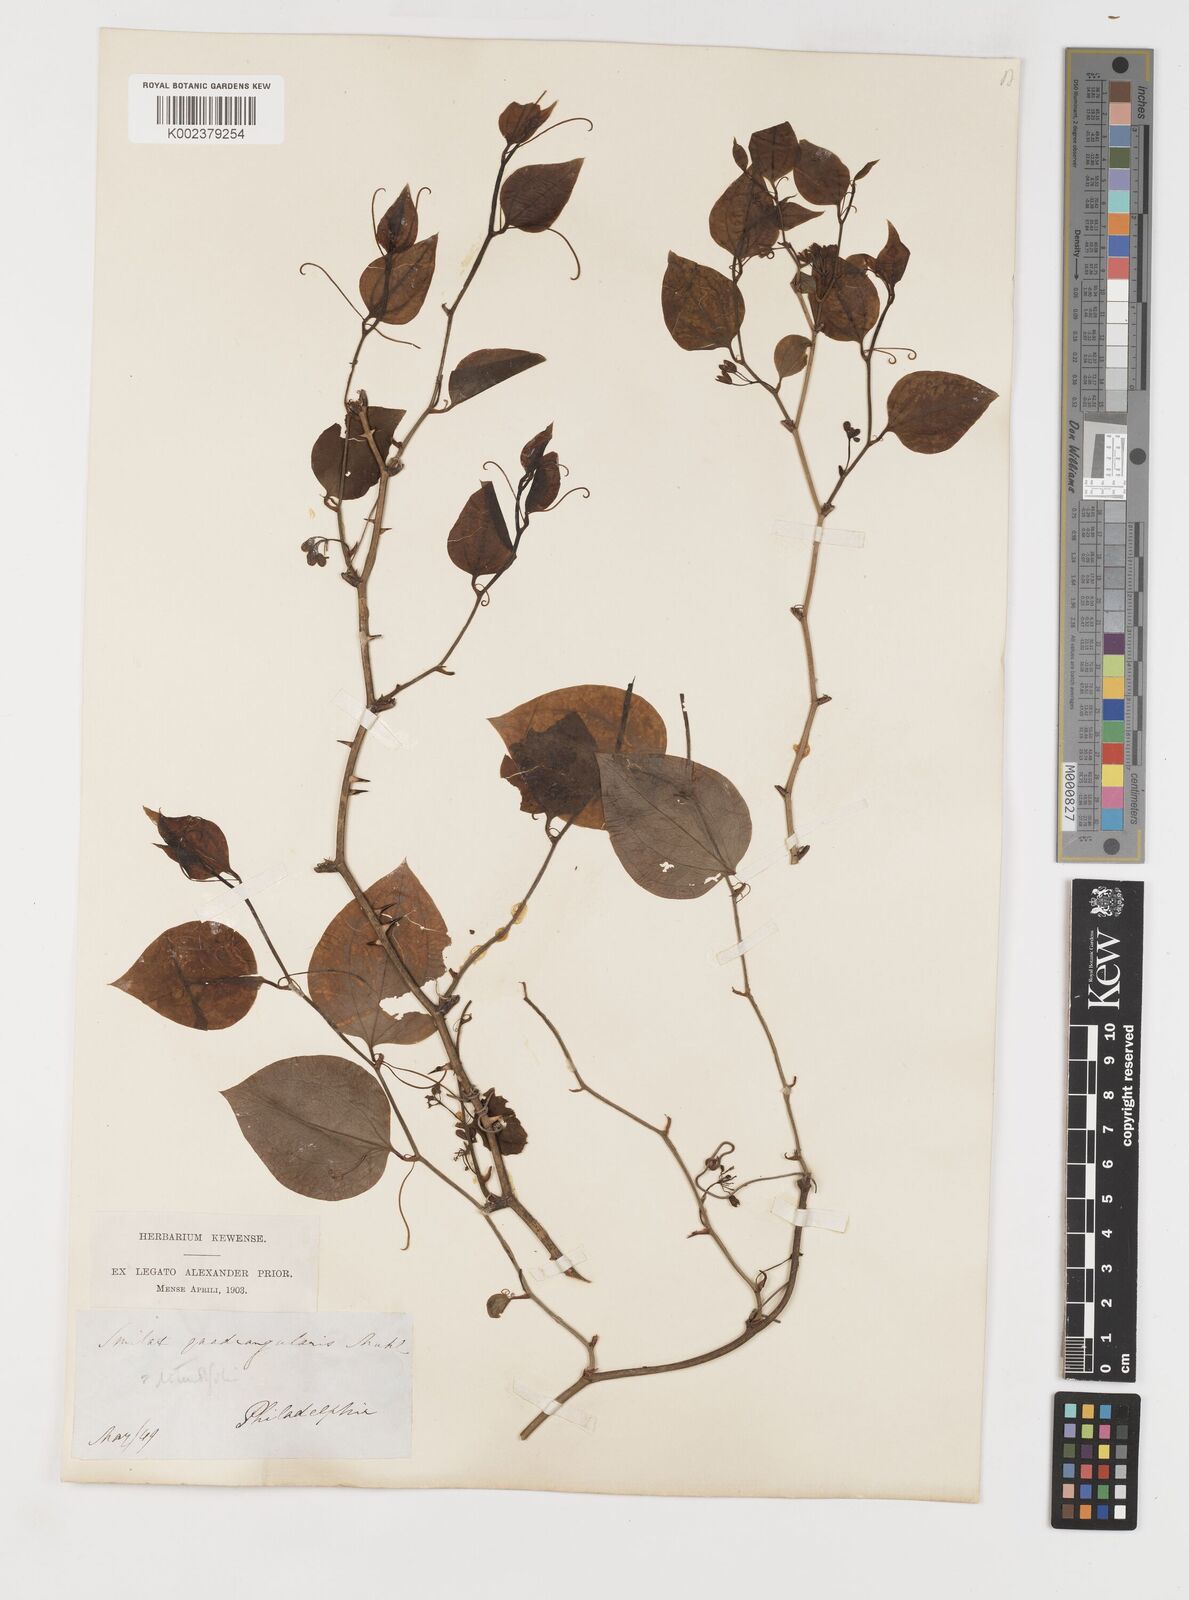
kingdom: Plantae
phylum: Tracheophyta
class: Liliopsida
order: Liliales
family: Smilacaceae
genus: Smilax
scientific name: Smilax rotundifolia
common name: Bullbriar
